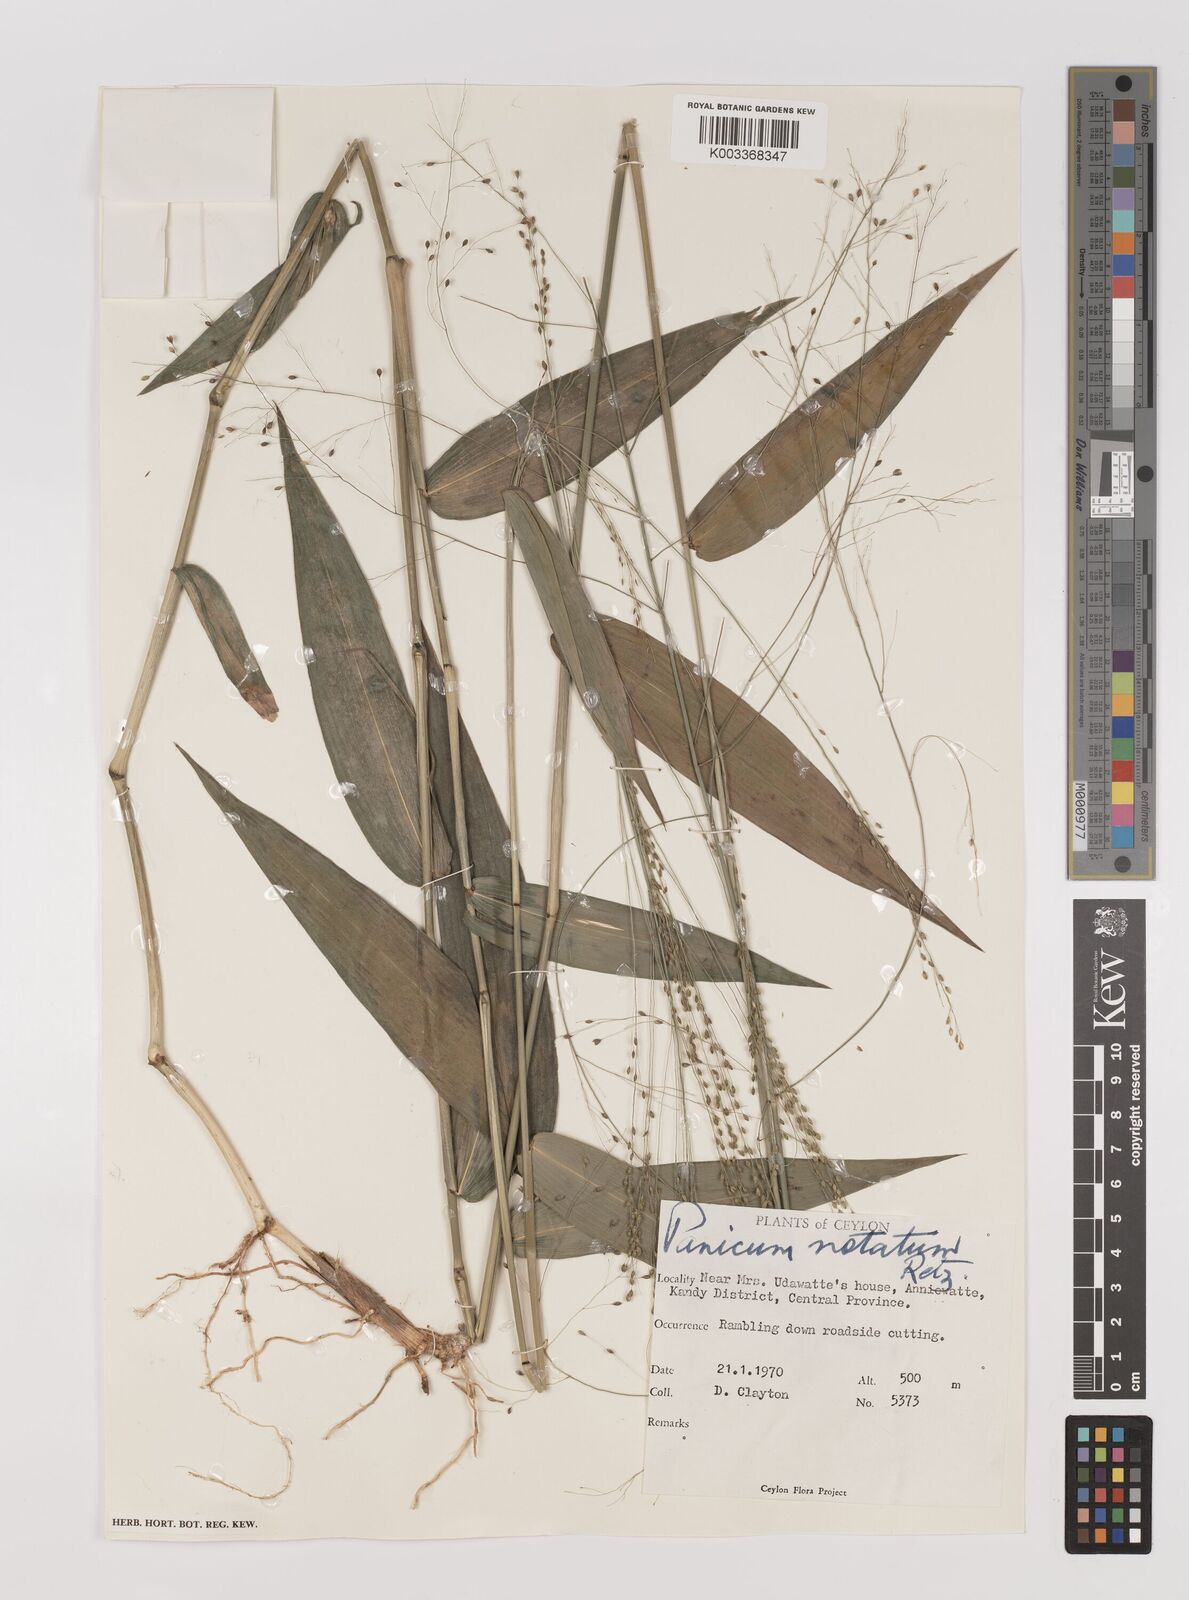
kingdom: Plantae
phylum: Tracheophyta
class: Liliopsida
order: Poales
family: Poaceae
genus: Panicum
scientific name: Panicum notatum
